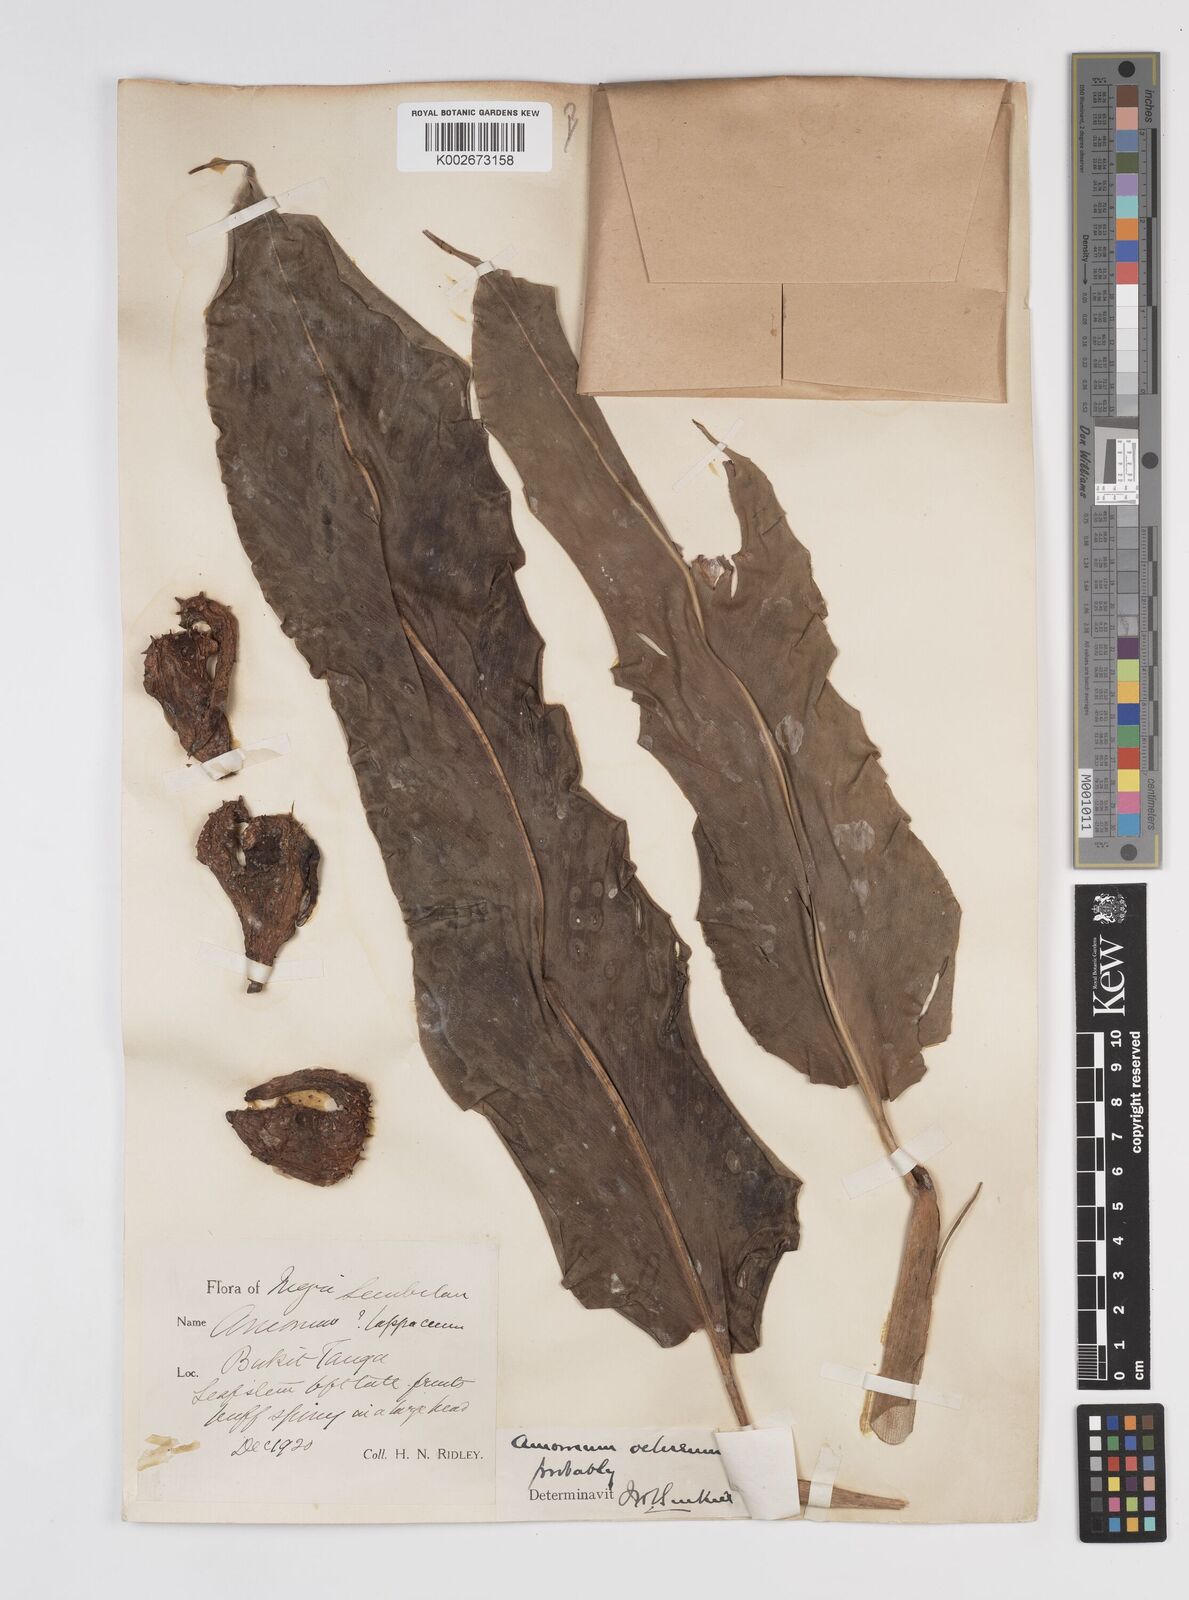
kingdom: Plantae
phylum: Tracheophyta
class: Liliopsida
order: Zingiberales
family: Zingiberaceae
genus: Meistera
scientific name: Meistera ochrea
